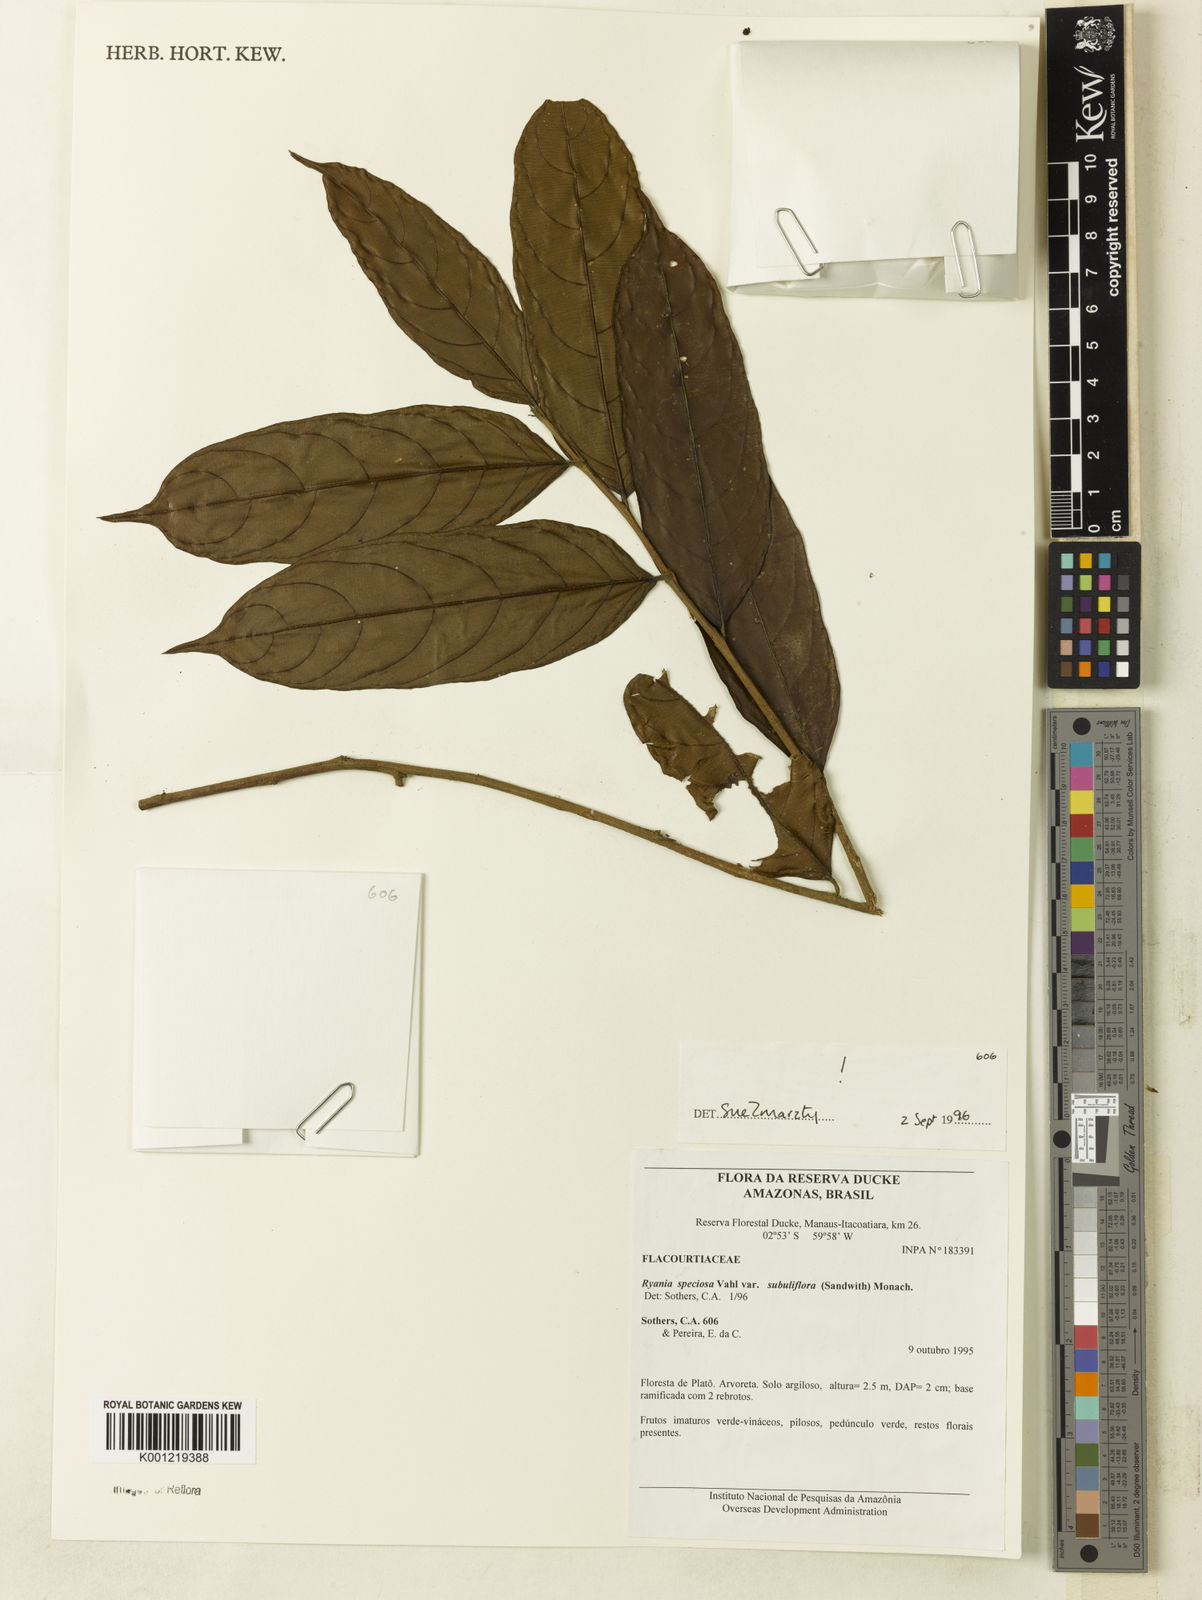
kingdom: Plantae
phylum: Tracheophyta
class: Magnoliopsida
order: Malpighiales
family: Salicaceae
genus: Ryania
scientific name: Ryania speciosa
